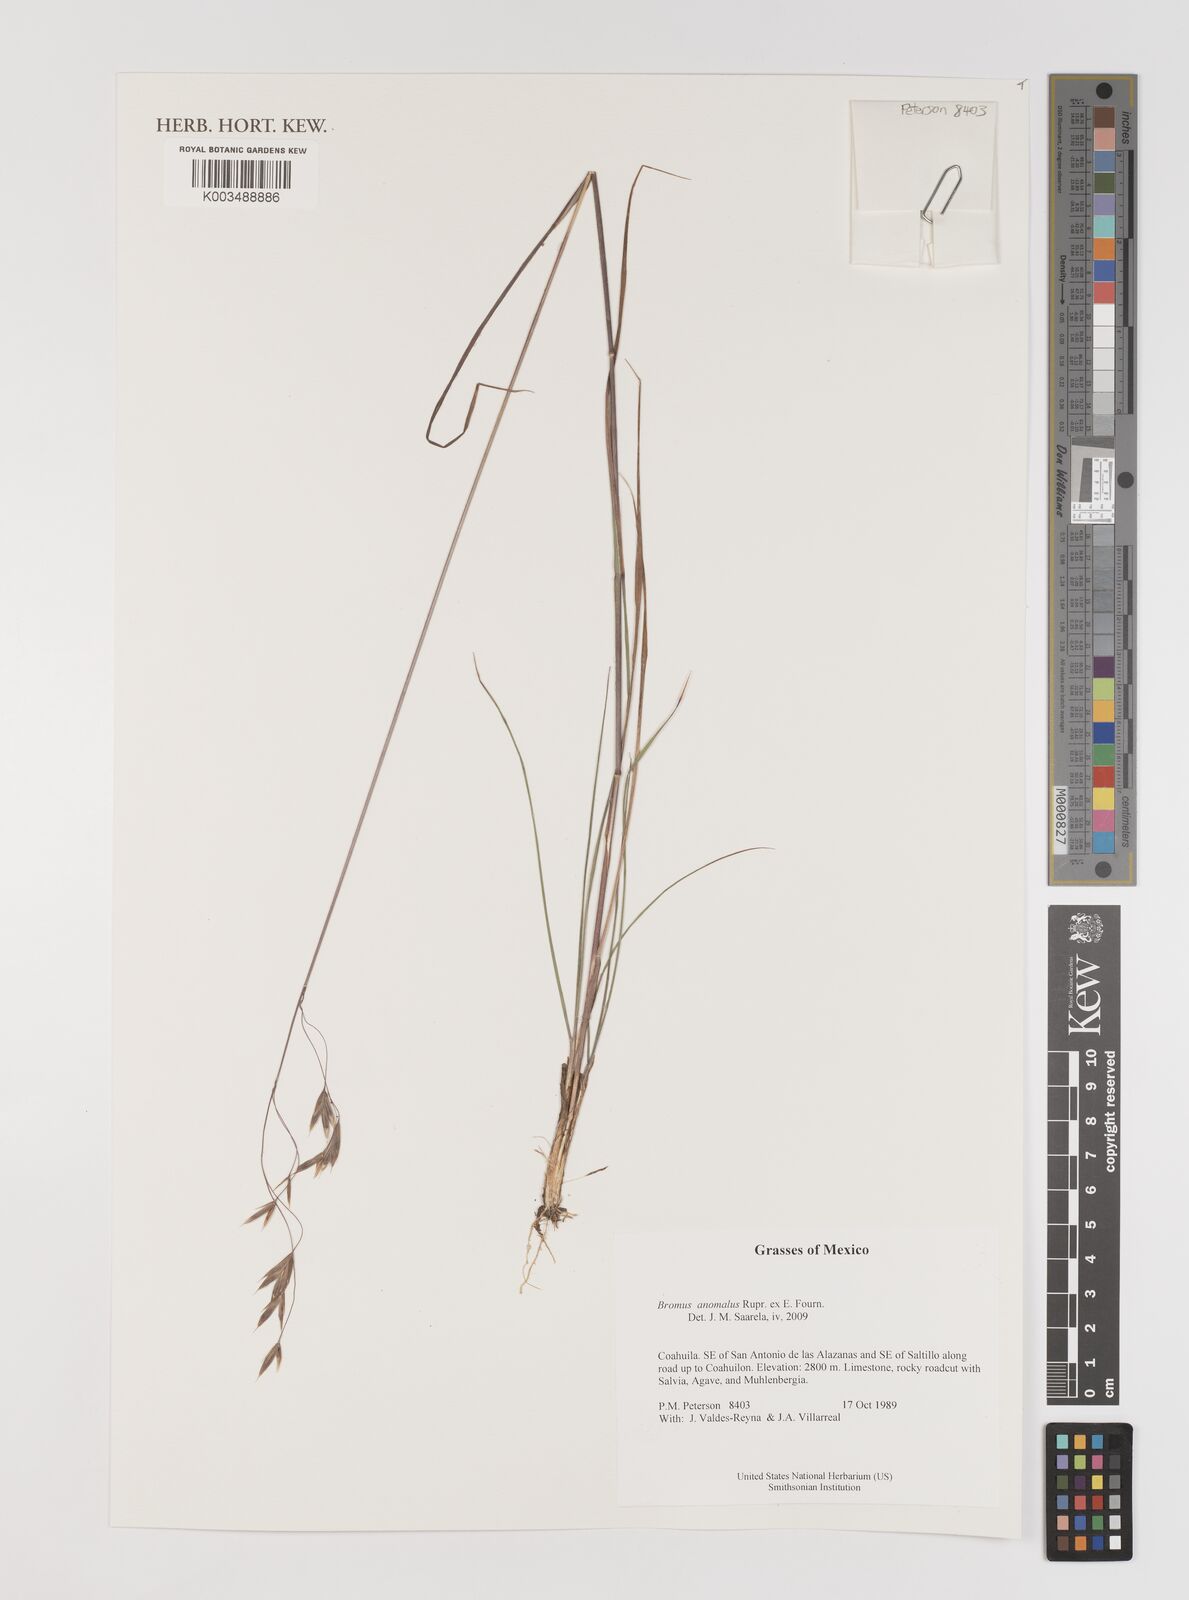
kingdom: Plantae
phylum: Tracheophyta
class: Liliopsida
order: Poales
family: Poaceae
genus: Bromus
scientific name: Bromus anomalus
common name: Nodding brome
